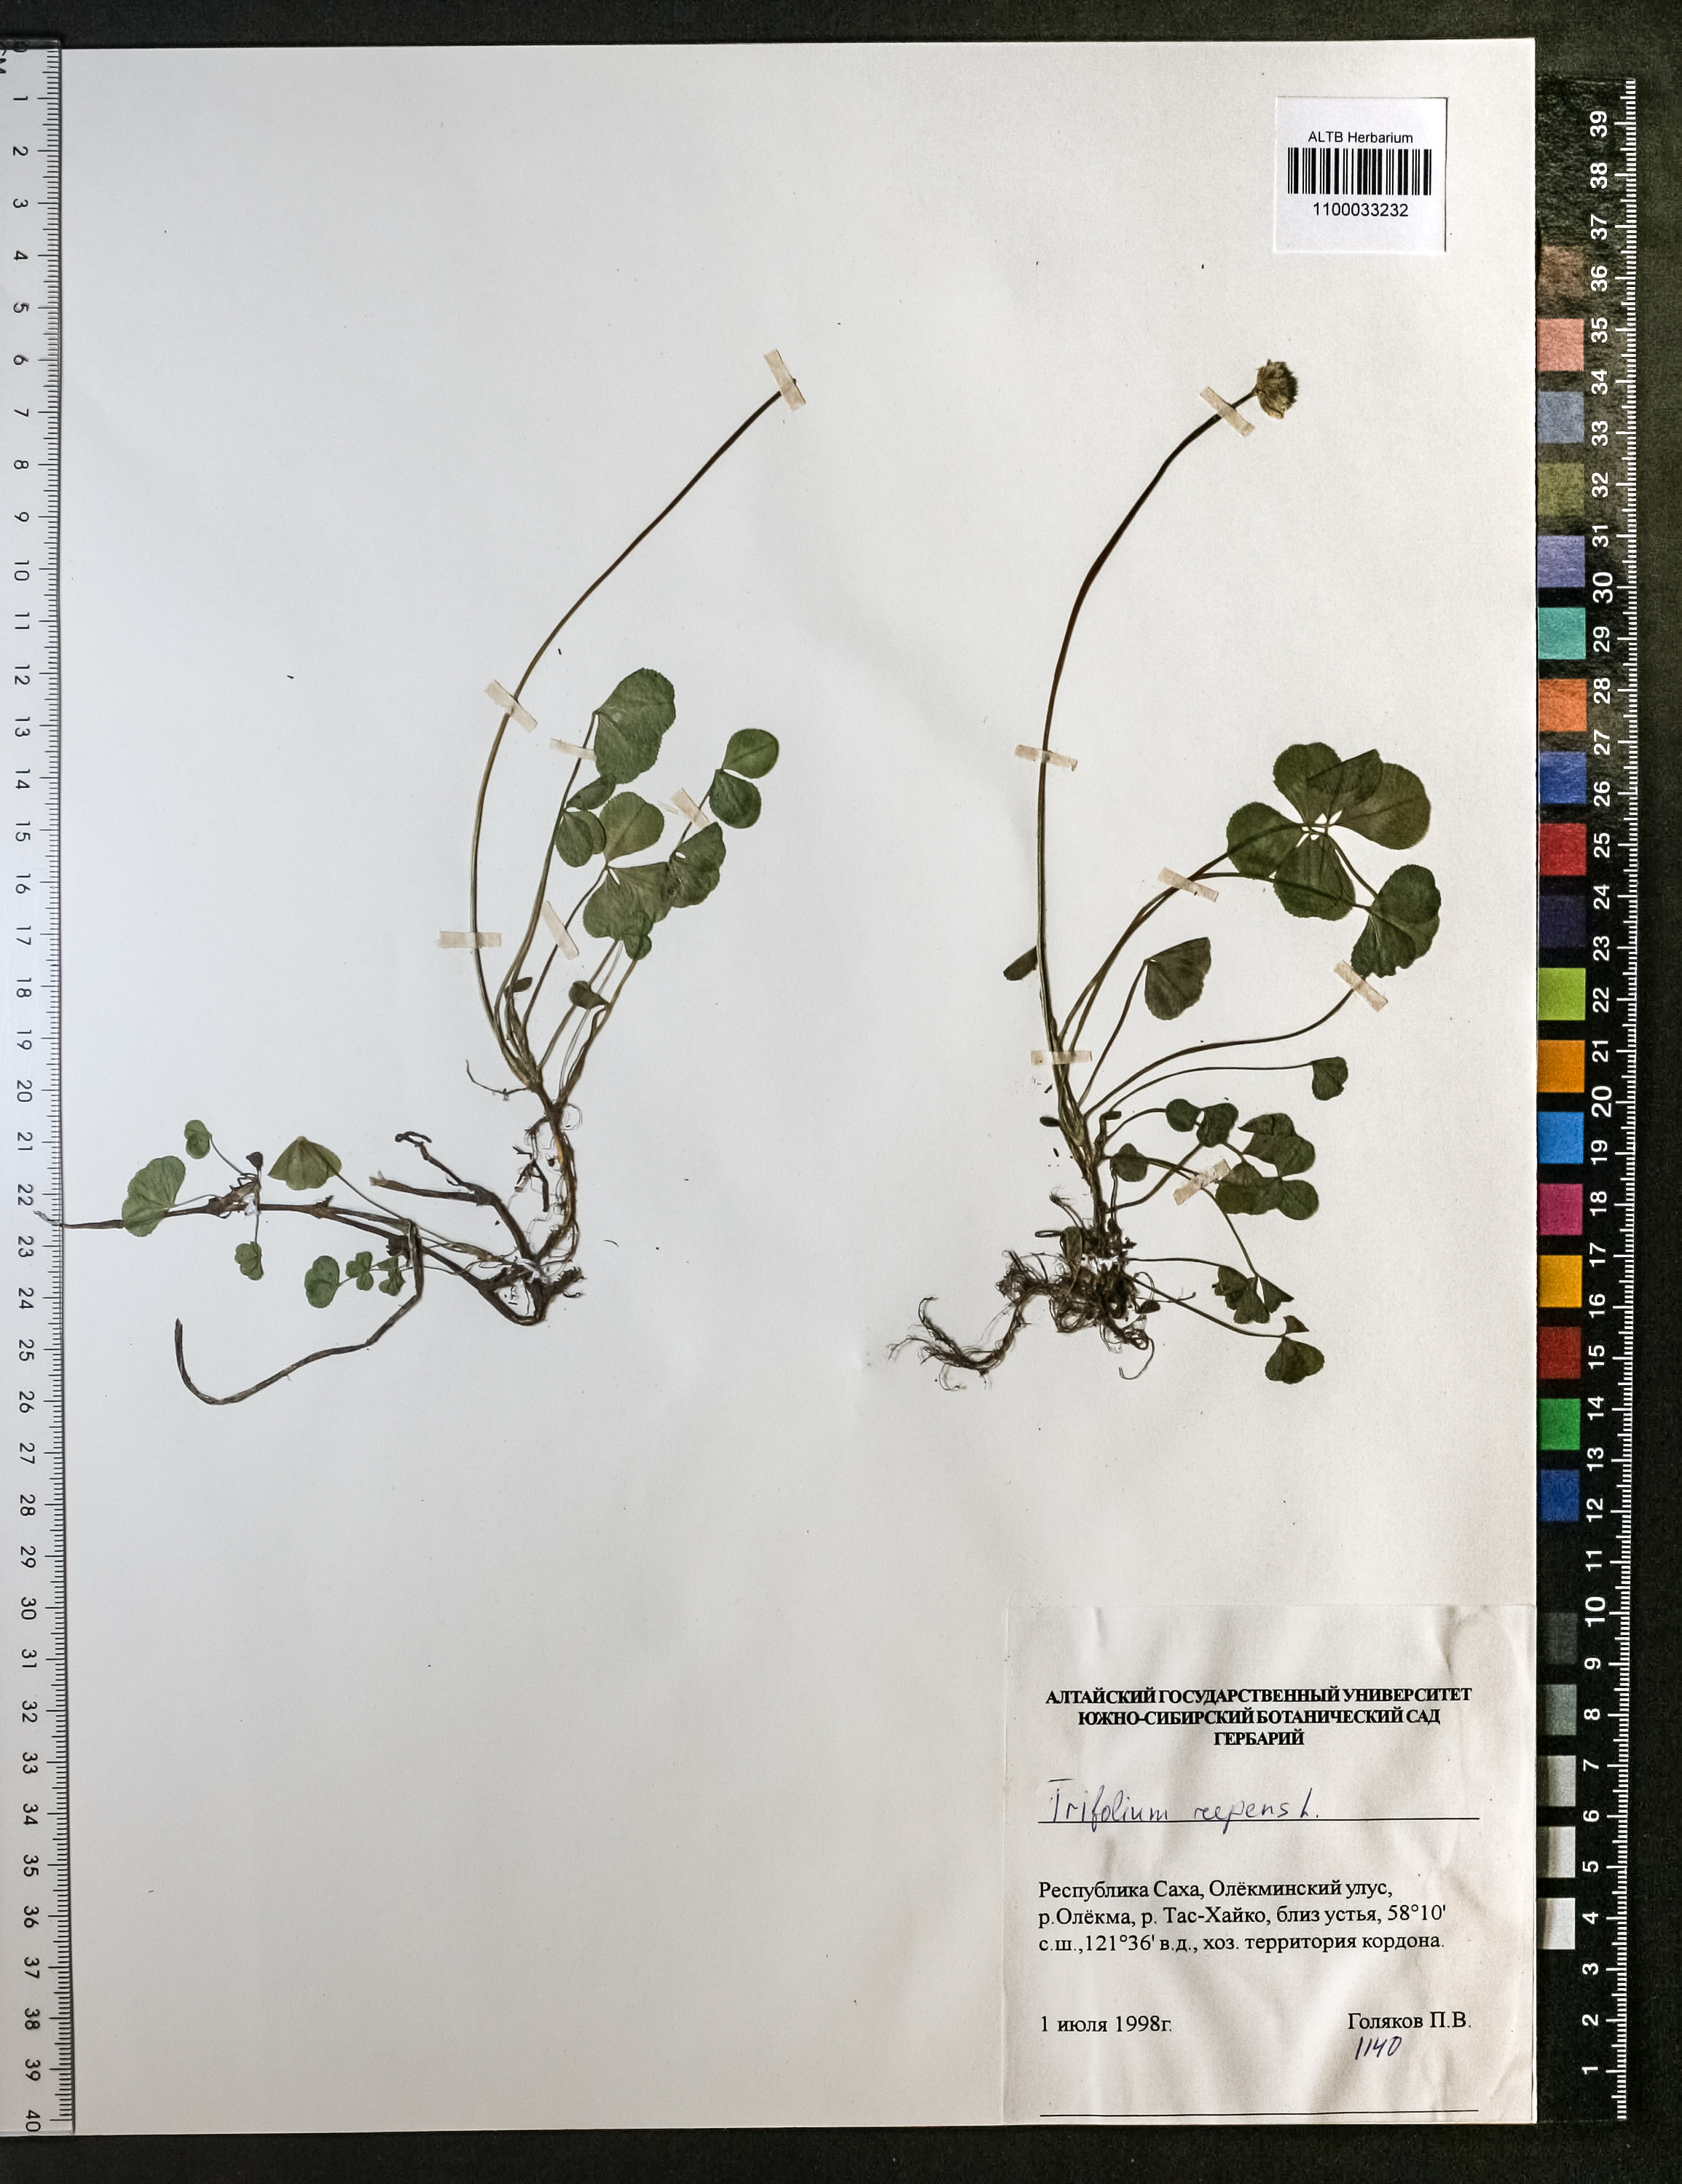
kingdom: Plantae
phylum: Tracheophyta
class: Magnoliopsida
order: Fabales
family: Fabaceae
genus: Trifolium
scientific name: Trifolium repens
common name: White clover
